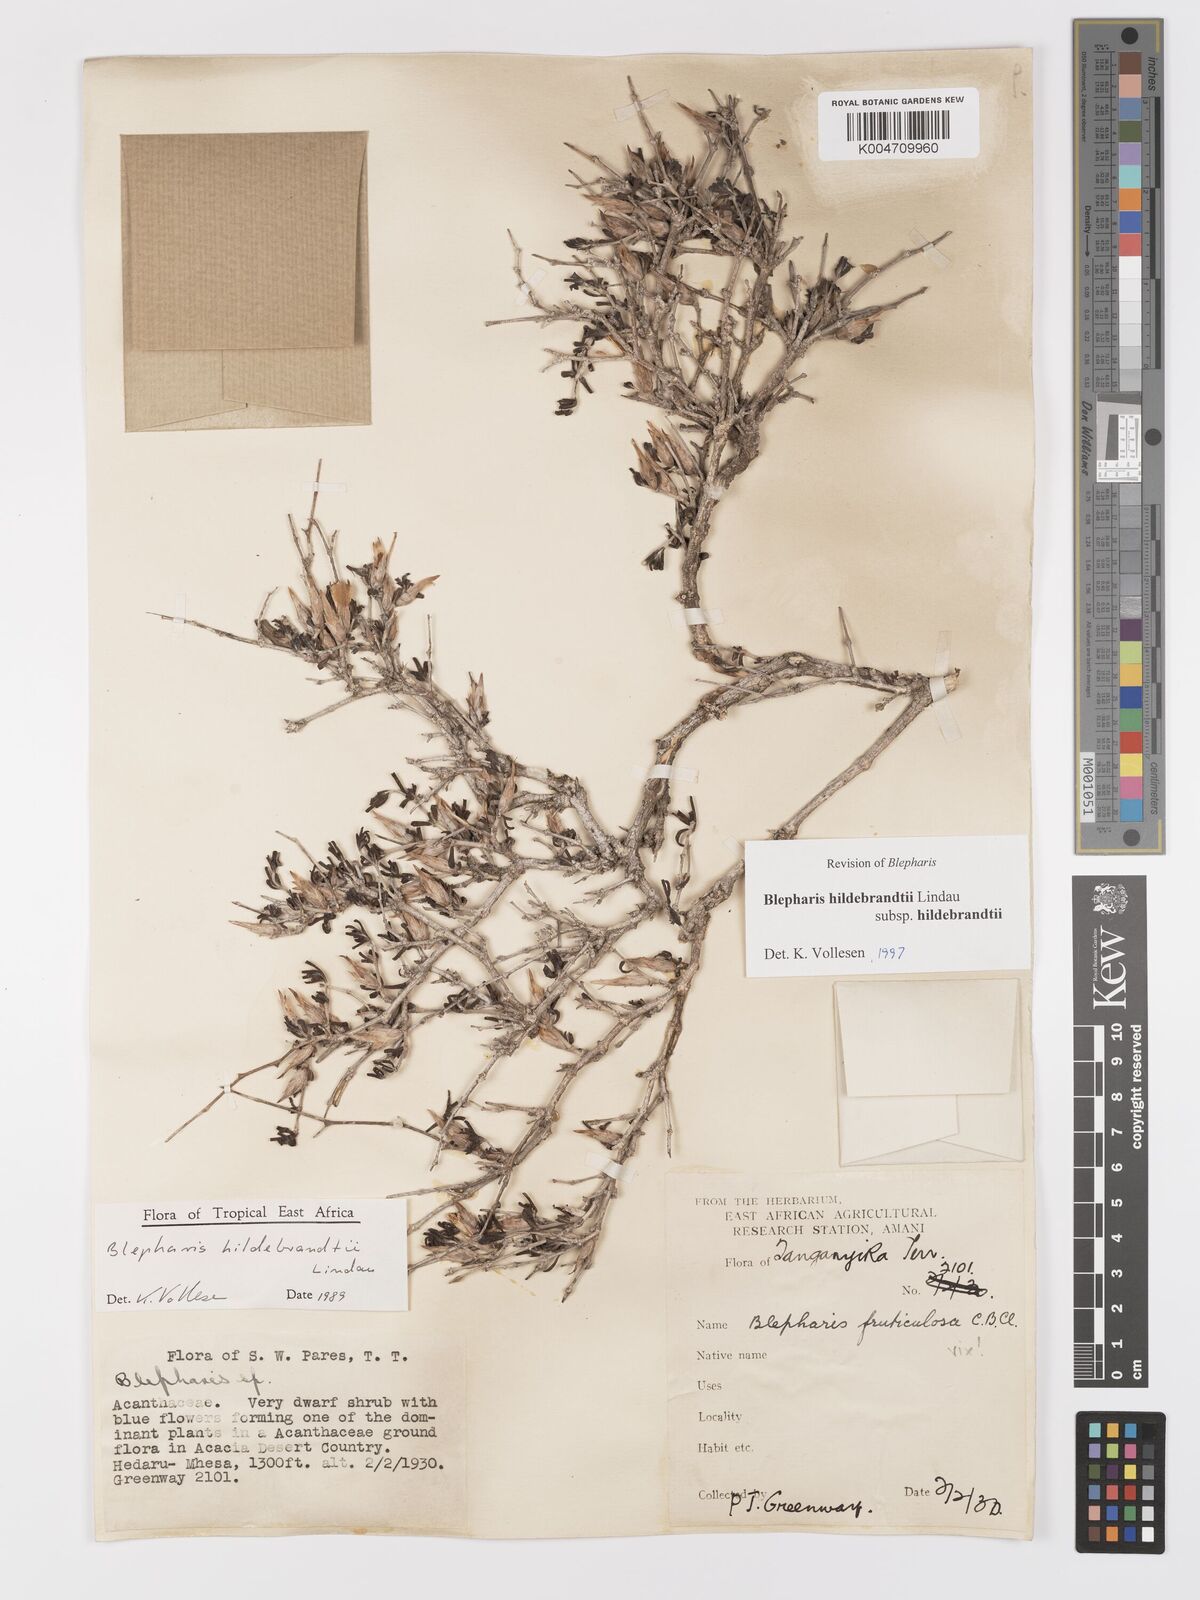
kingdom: Plantae
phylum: Tracheophyta
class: Magnoliopsida
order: Lamiales
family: Acanthaceae
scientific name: Acanthaceae
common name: Acanthaceae
